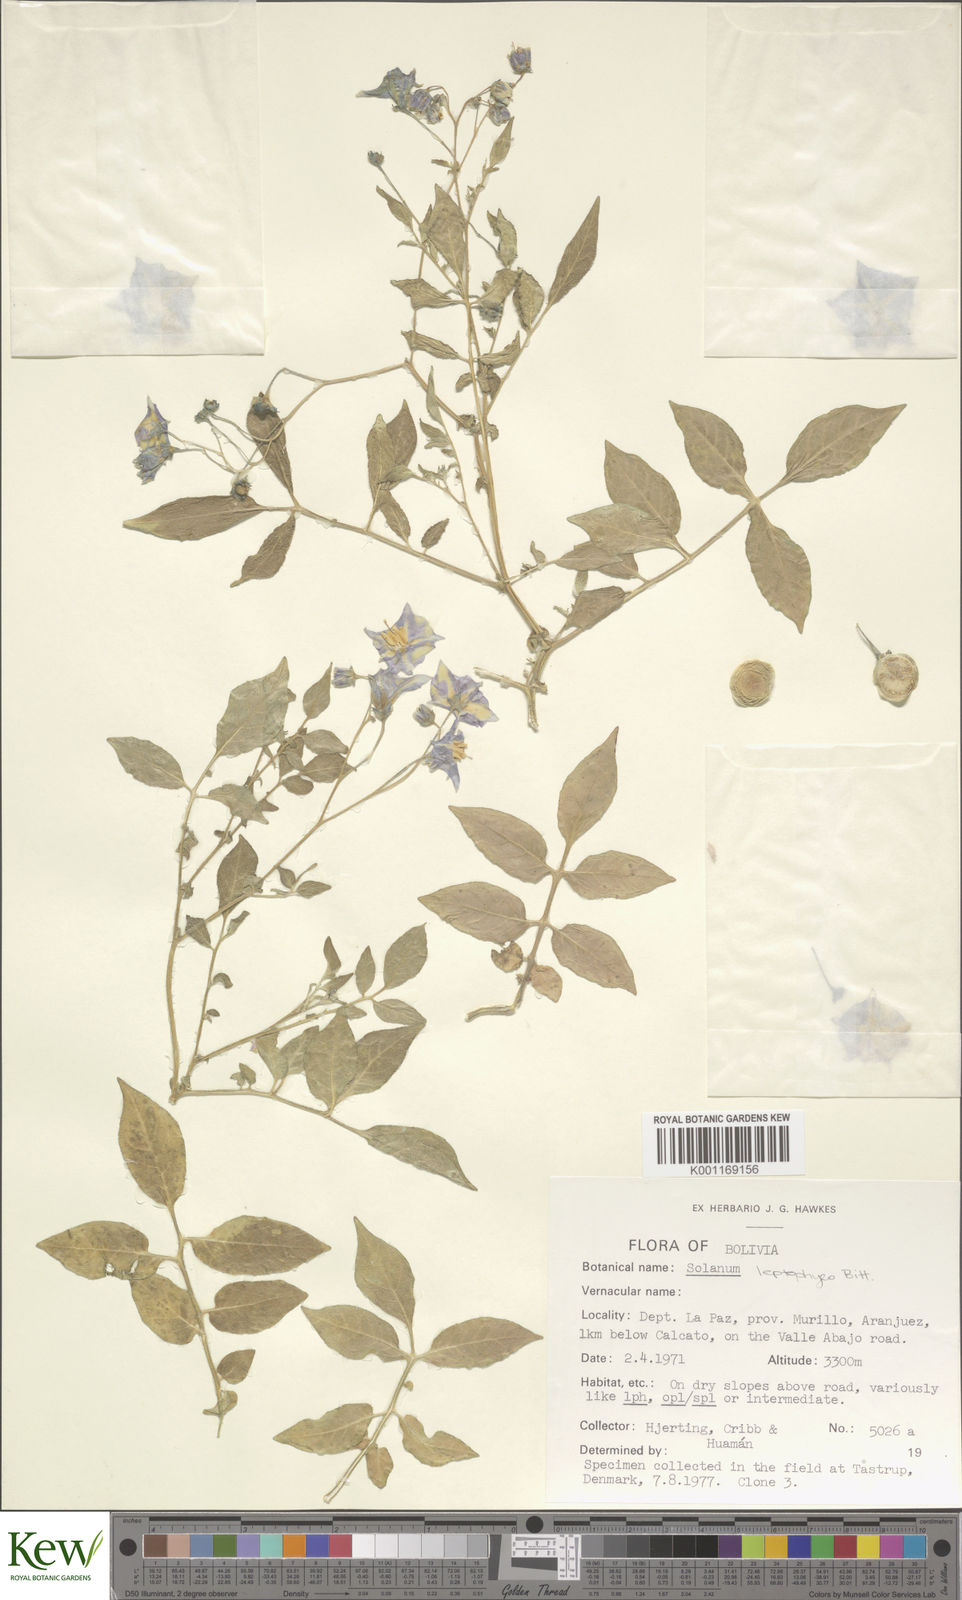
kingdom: Plantae
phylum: Tracheophyta
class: Magnoliopsida
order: Solanales
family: Solanaceae
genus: Solanum
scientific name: Solanum brevicaule
